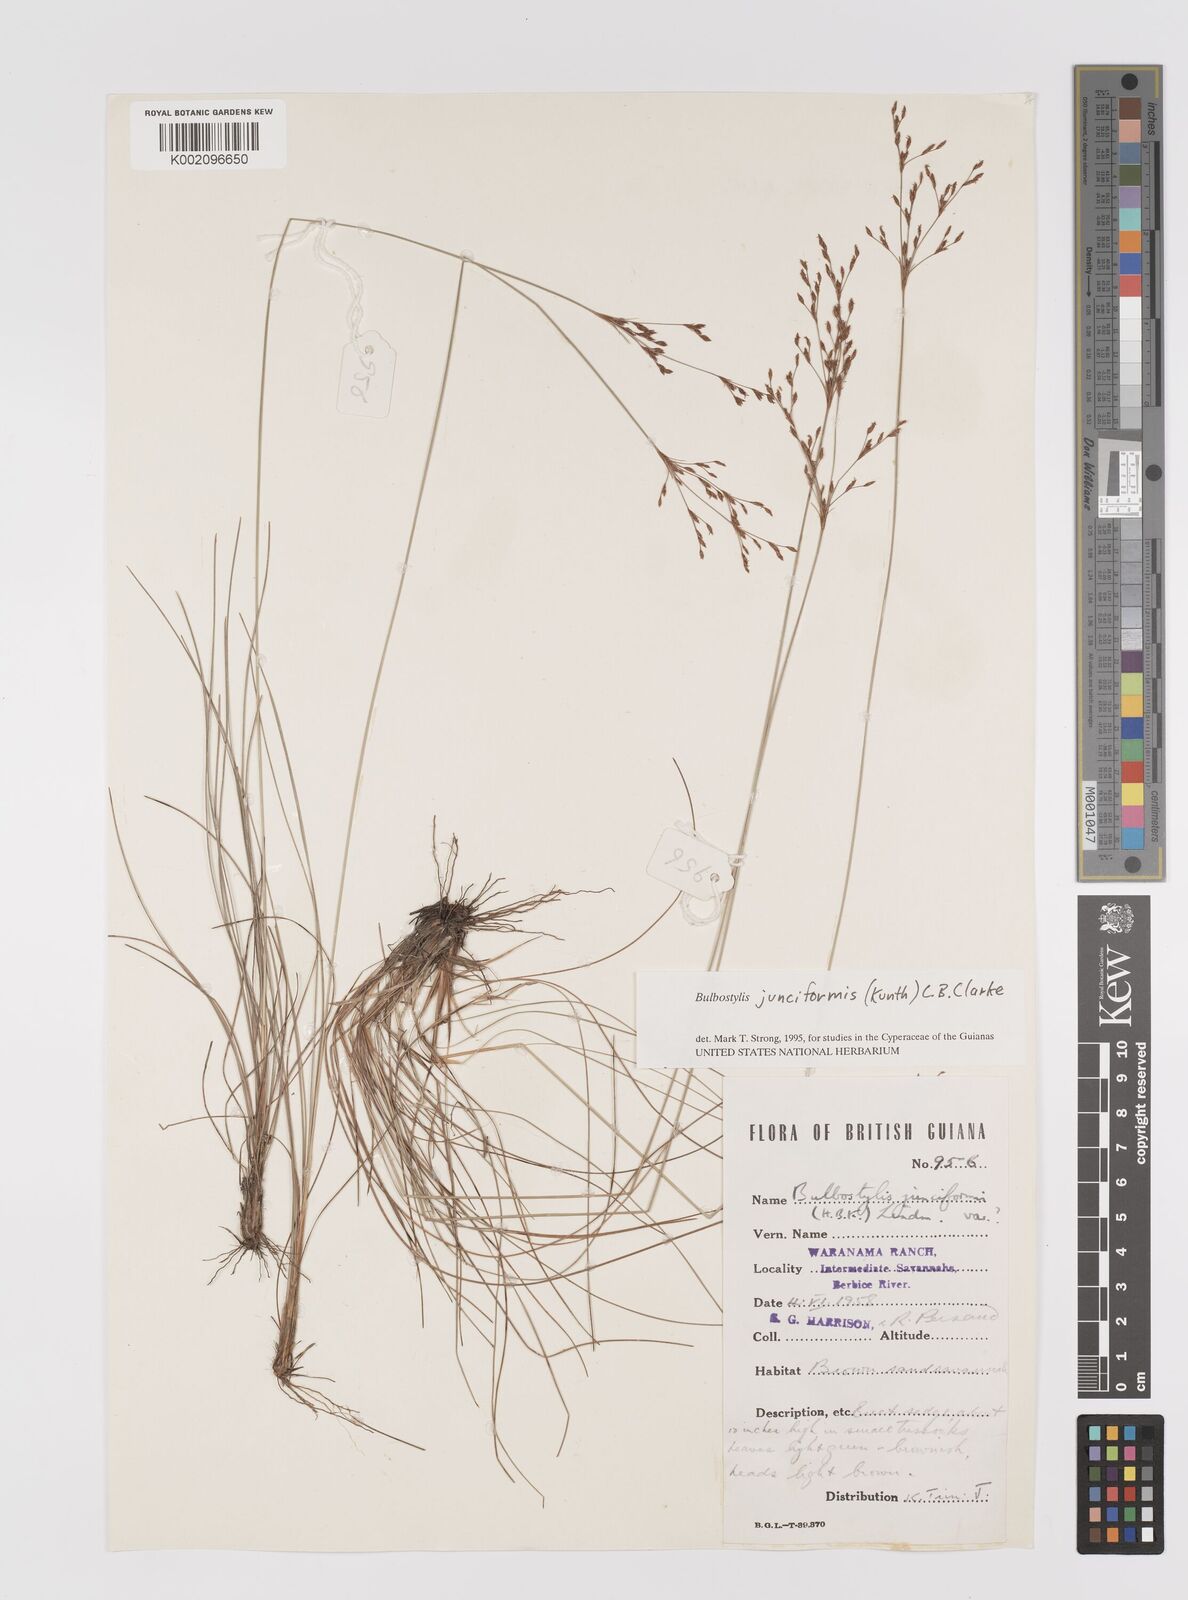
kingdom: Plantae
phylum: Tracheophyta
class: Liliopsida
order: Poales
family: Cyperaceae
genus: Bulbostylis
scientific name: Bulbostylis junciformis
